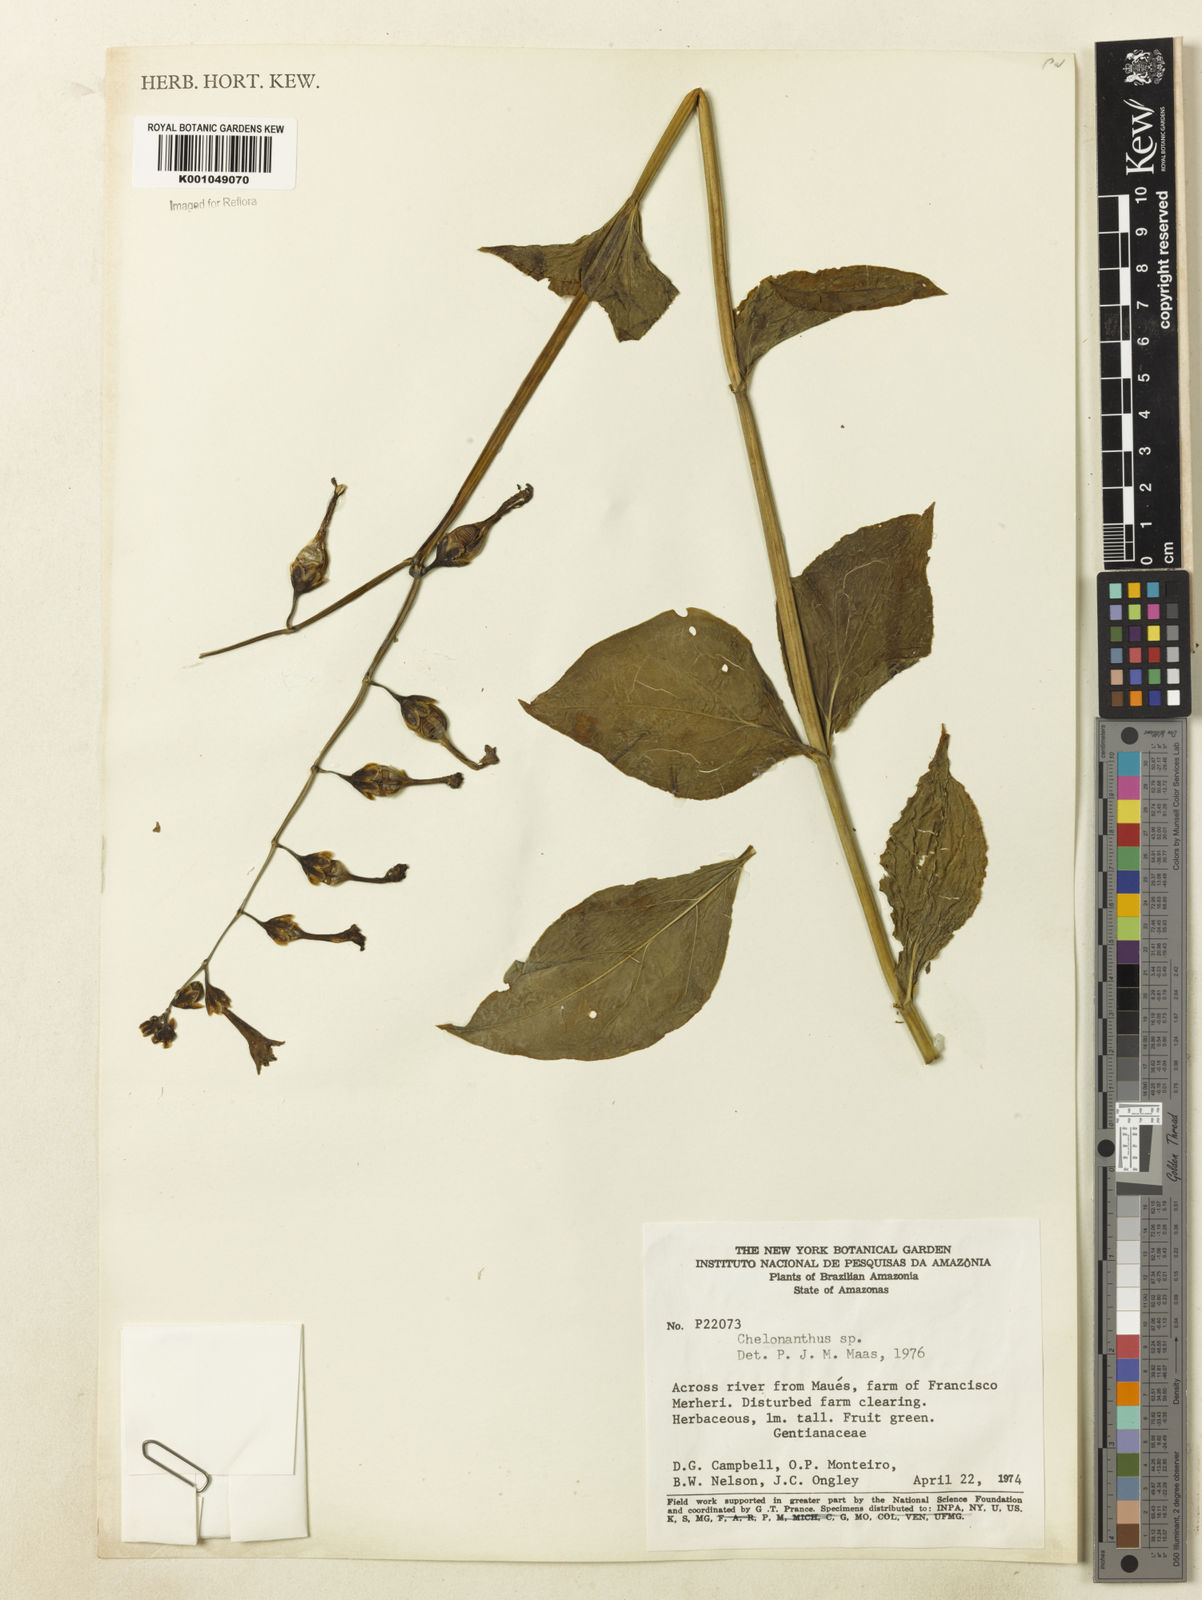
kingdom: Plantae
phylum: Tracheophyta
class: Magnoliopsida
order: Gentianales
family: Gentianaceae
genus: Chelonanthus
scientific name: Chelonanthus
